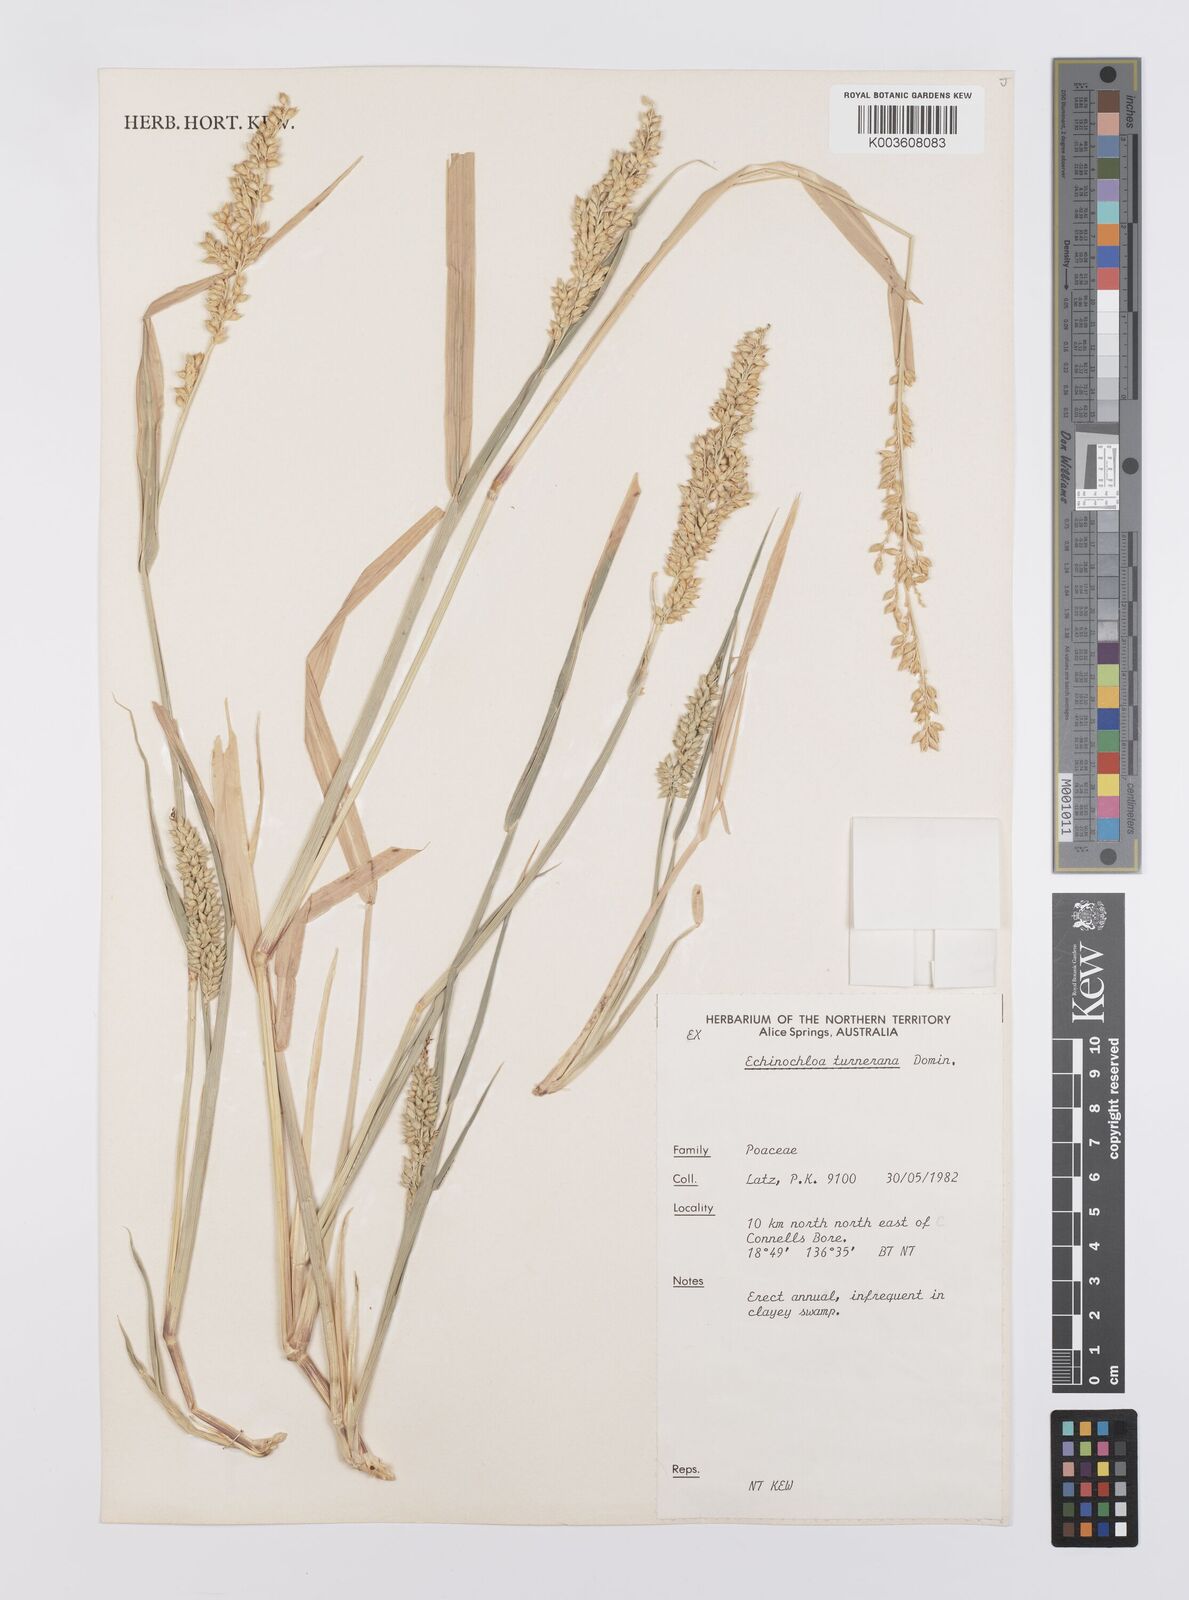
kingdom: Plantae
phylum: Tracheophyta
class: Liliopsida
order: Poales
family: Poaceae
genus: Echinochloa
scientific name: Echinochloa turneriana
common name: Channel millet
